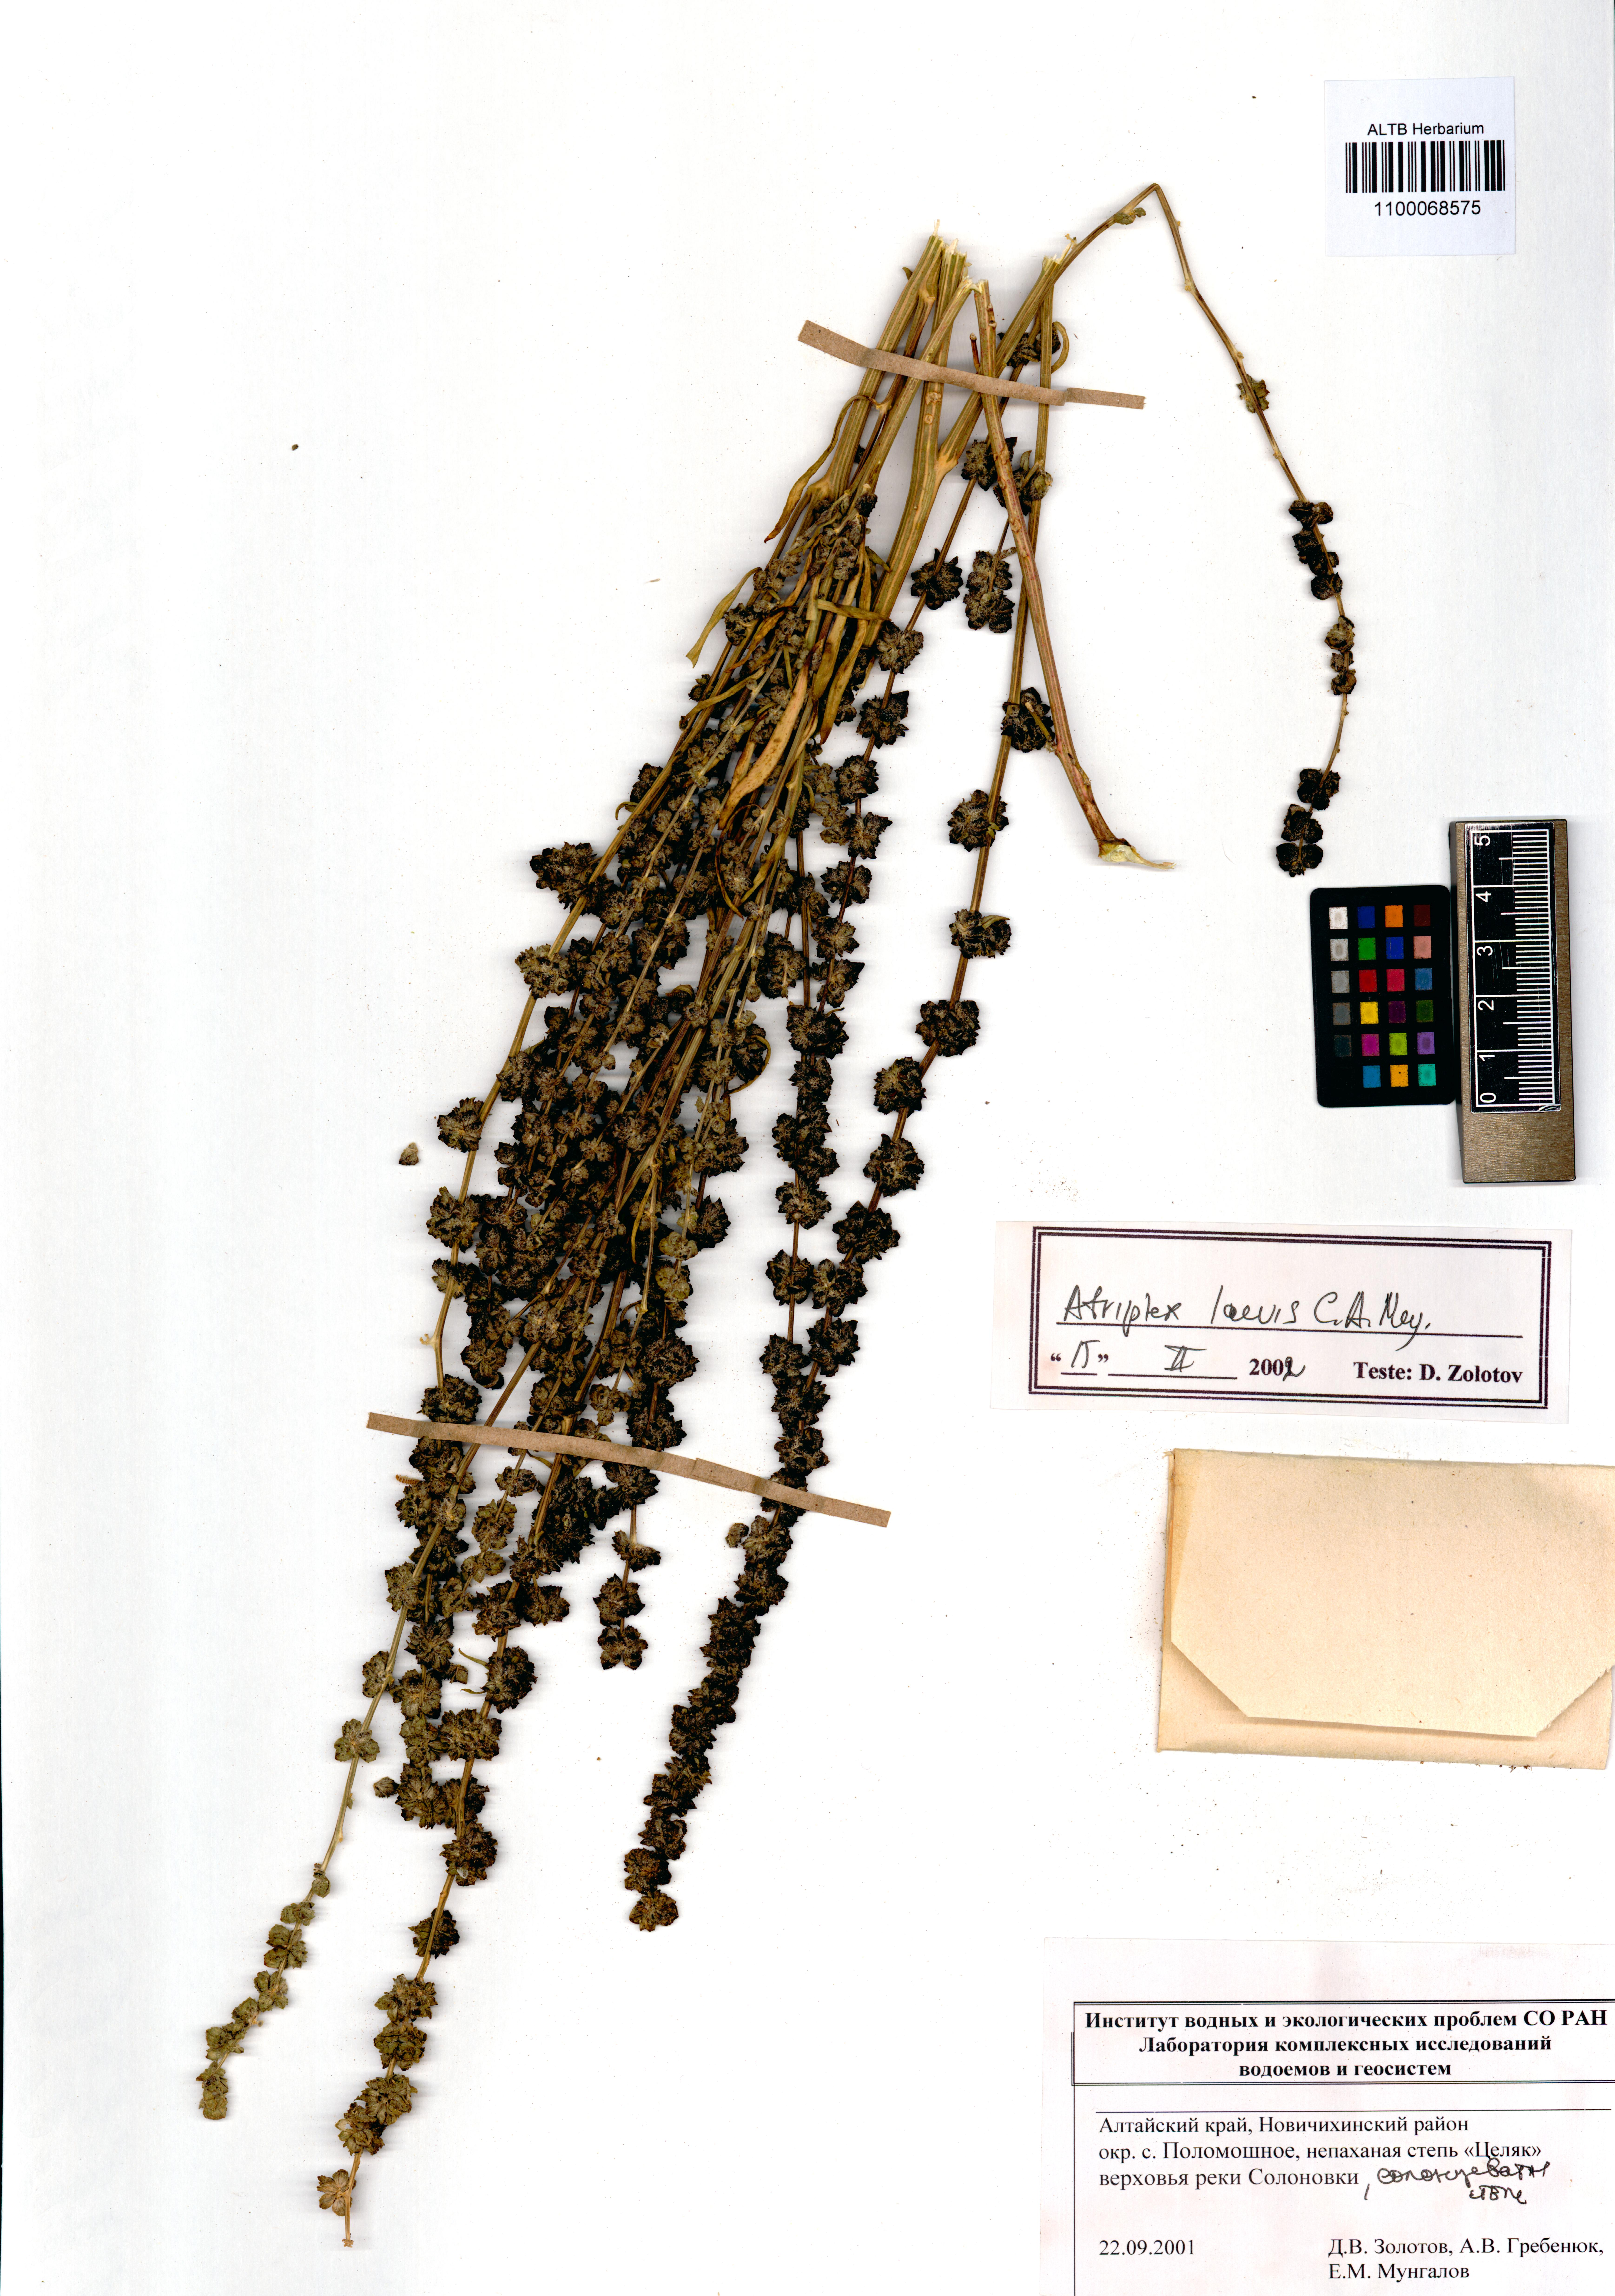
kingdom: Plantae
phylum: Tracheophyta
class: Magnoliopsida
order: Caryophyllales
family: Amaranthaceae
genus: Atriplex
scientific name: Atriplex laevis
